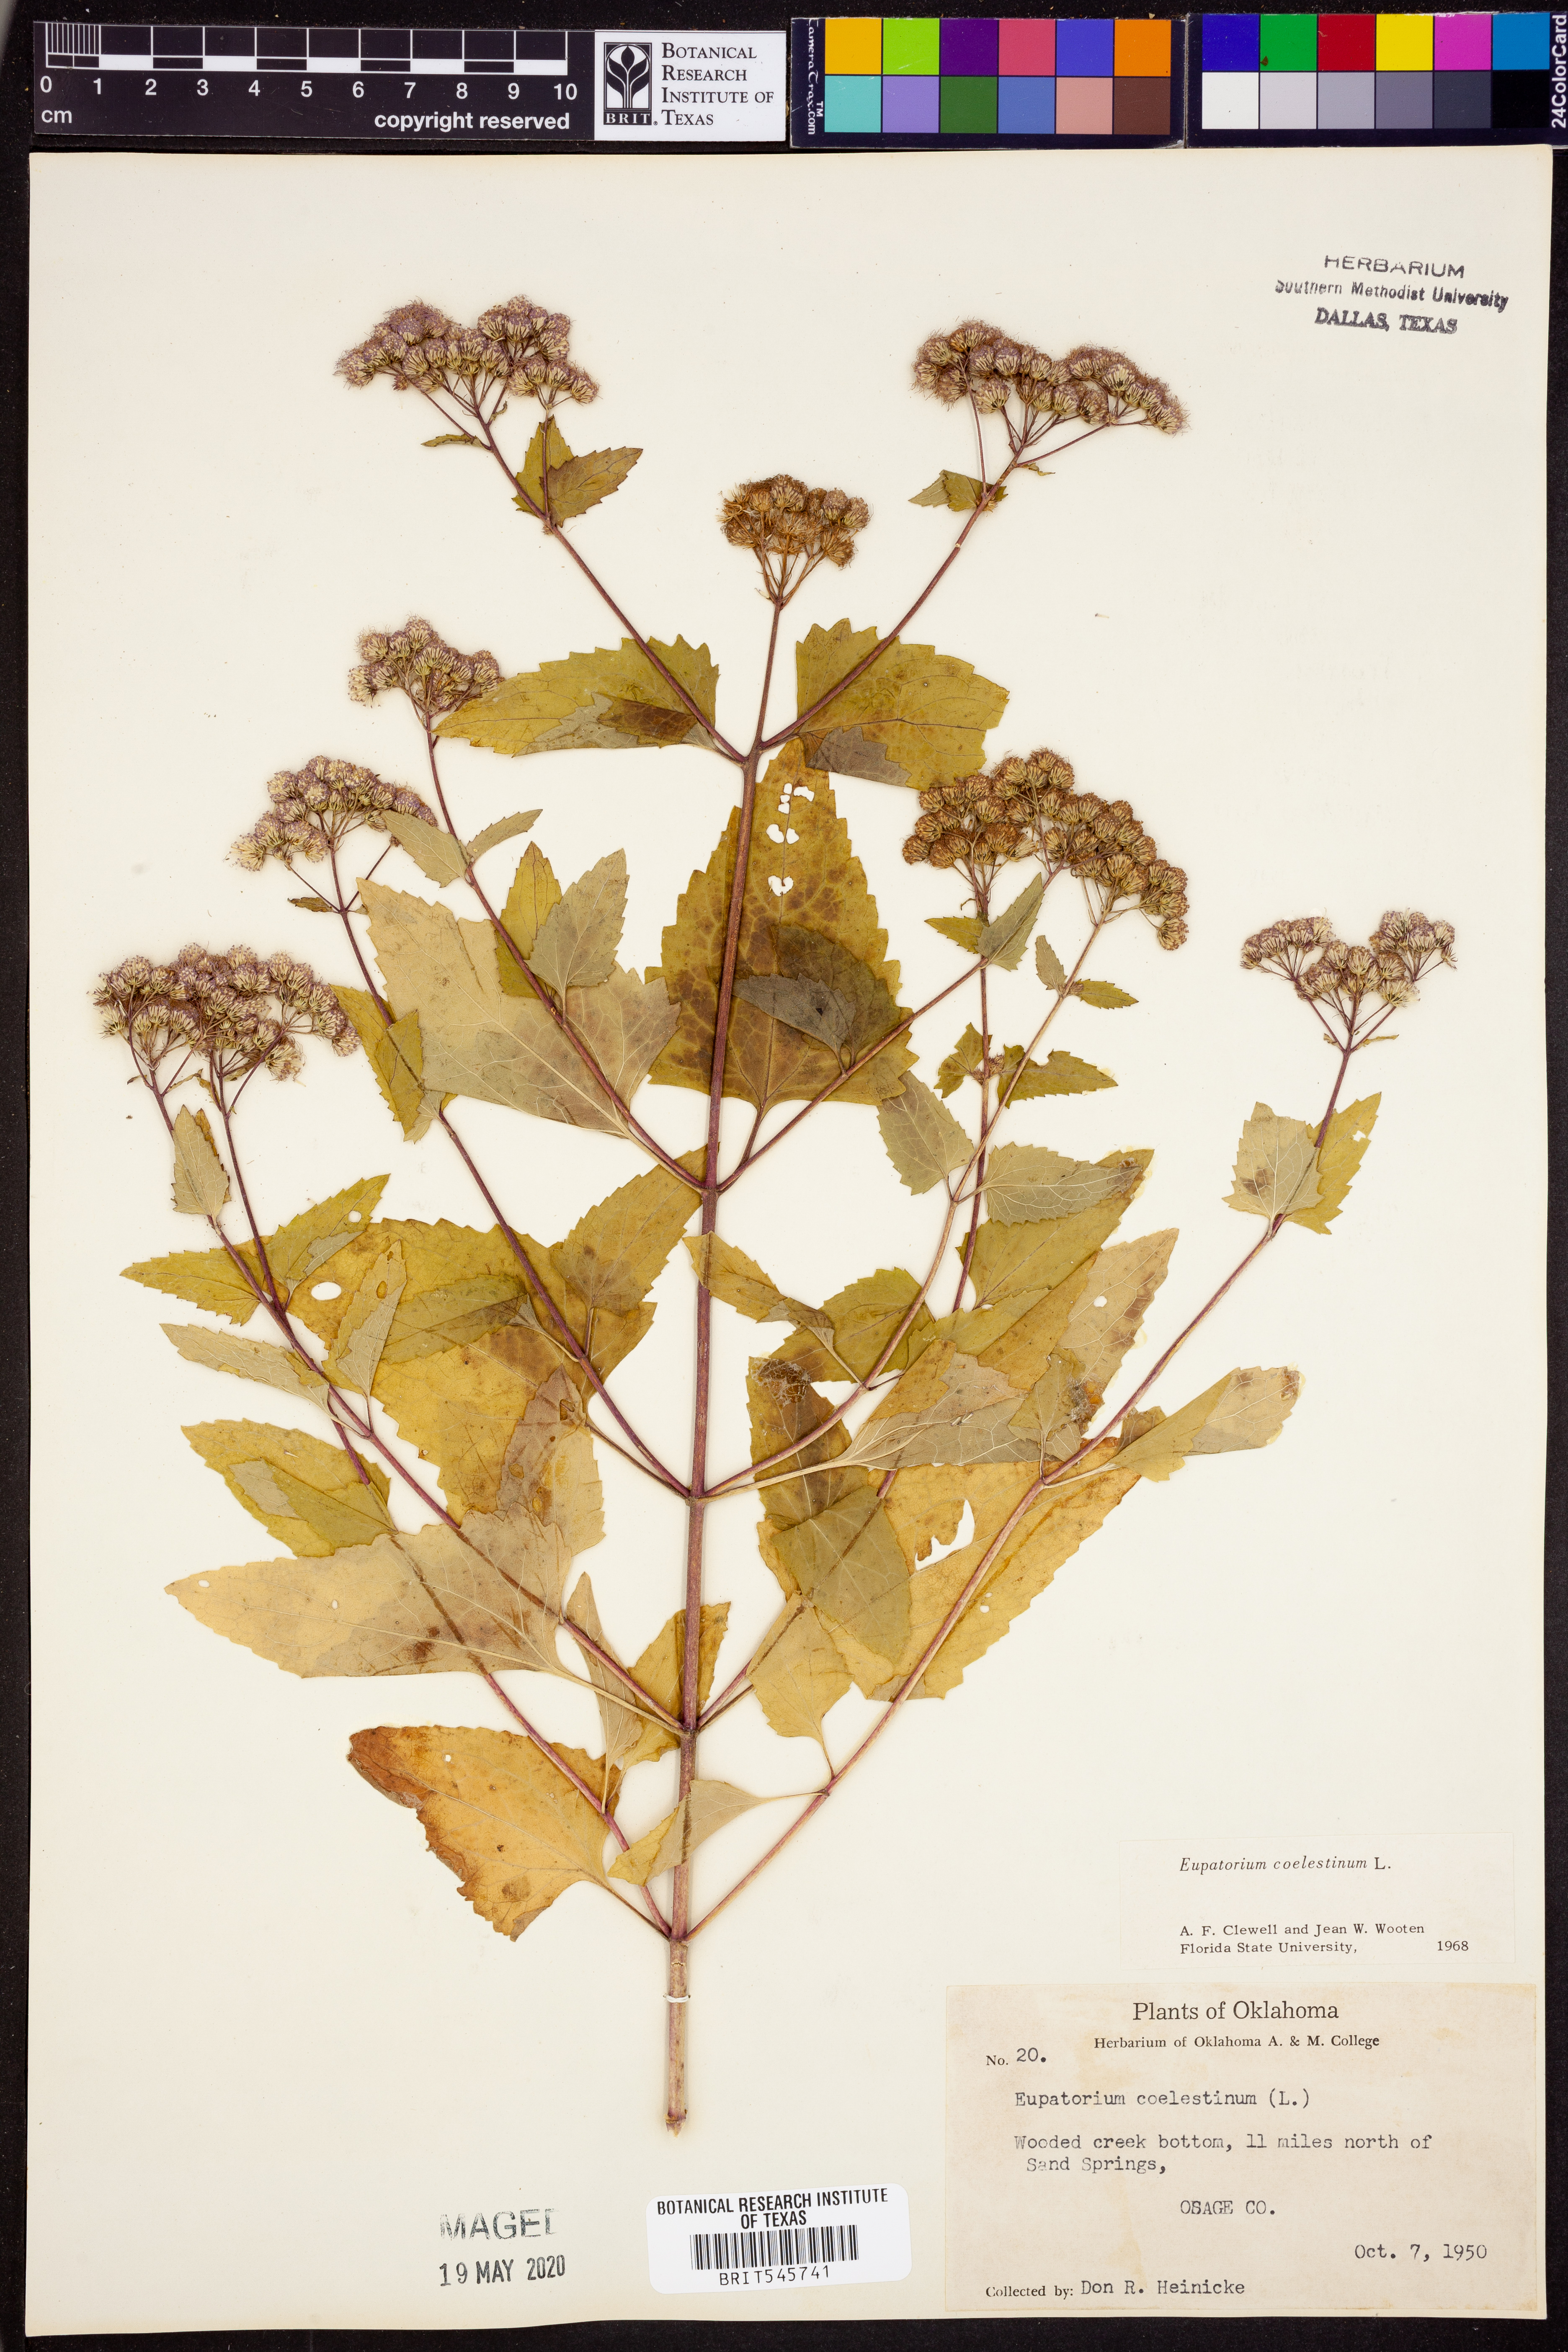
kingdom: Plantae
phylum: Tracheophyta
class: Magnoliopsida
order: Asterales
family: Asteraceae
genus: Conoclinium
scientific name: Conoclinium coelestinum
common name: Blue mistflower
